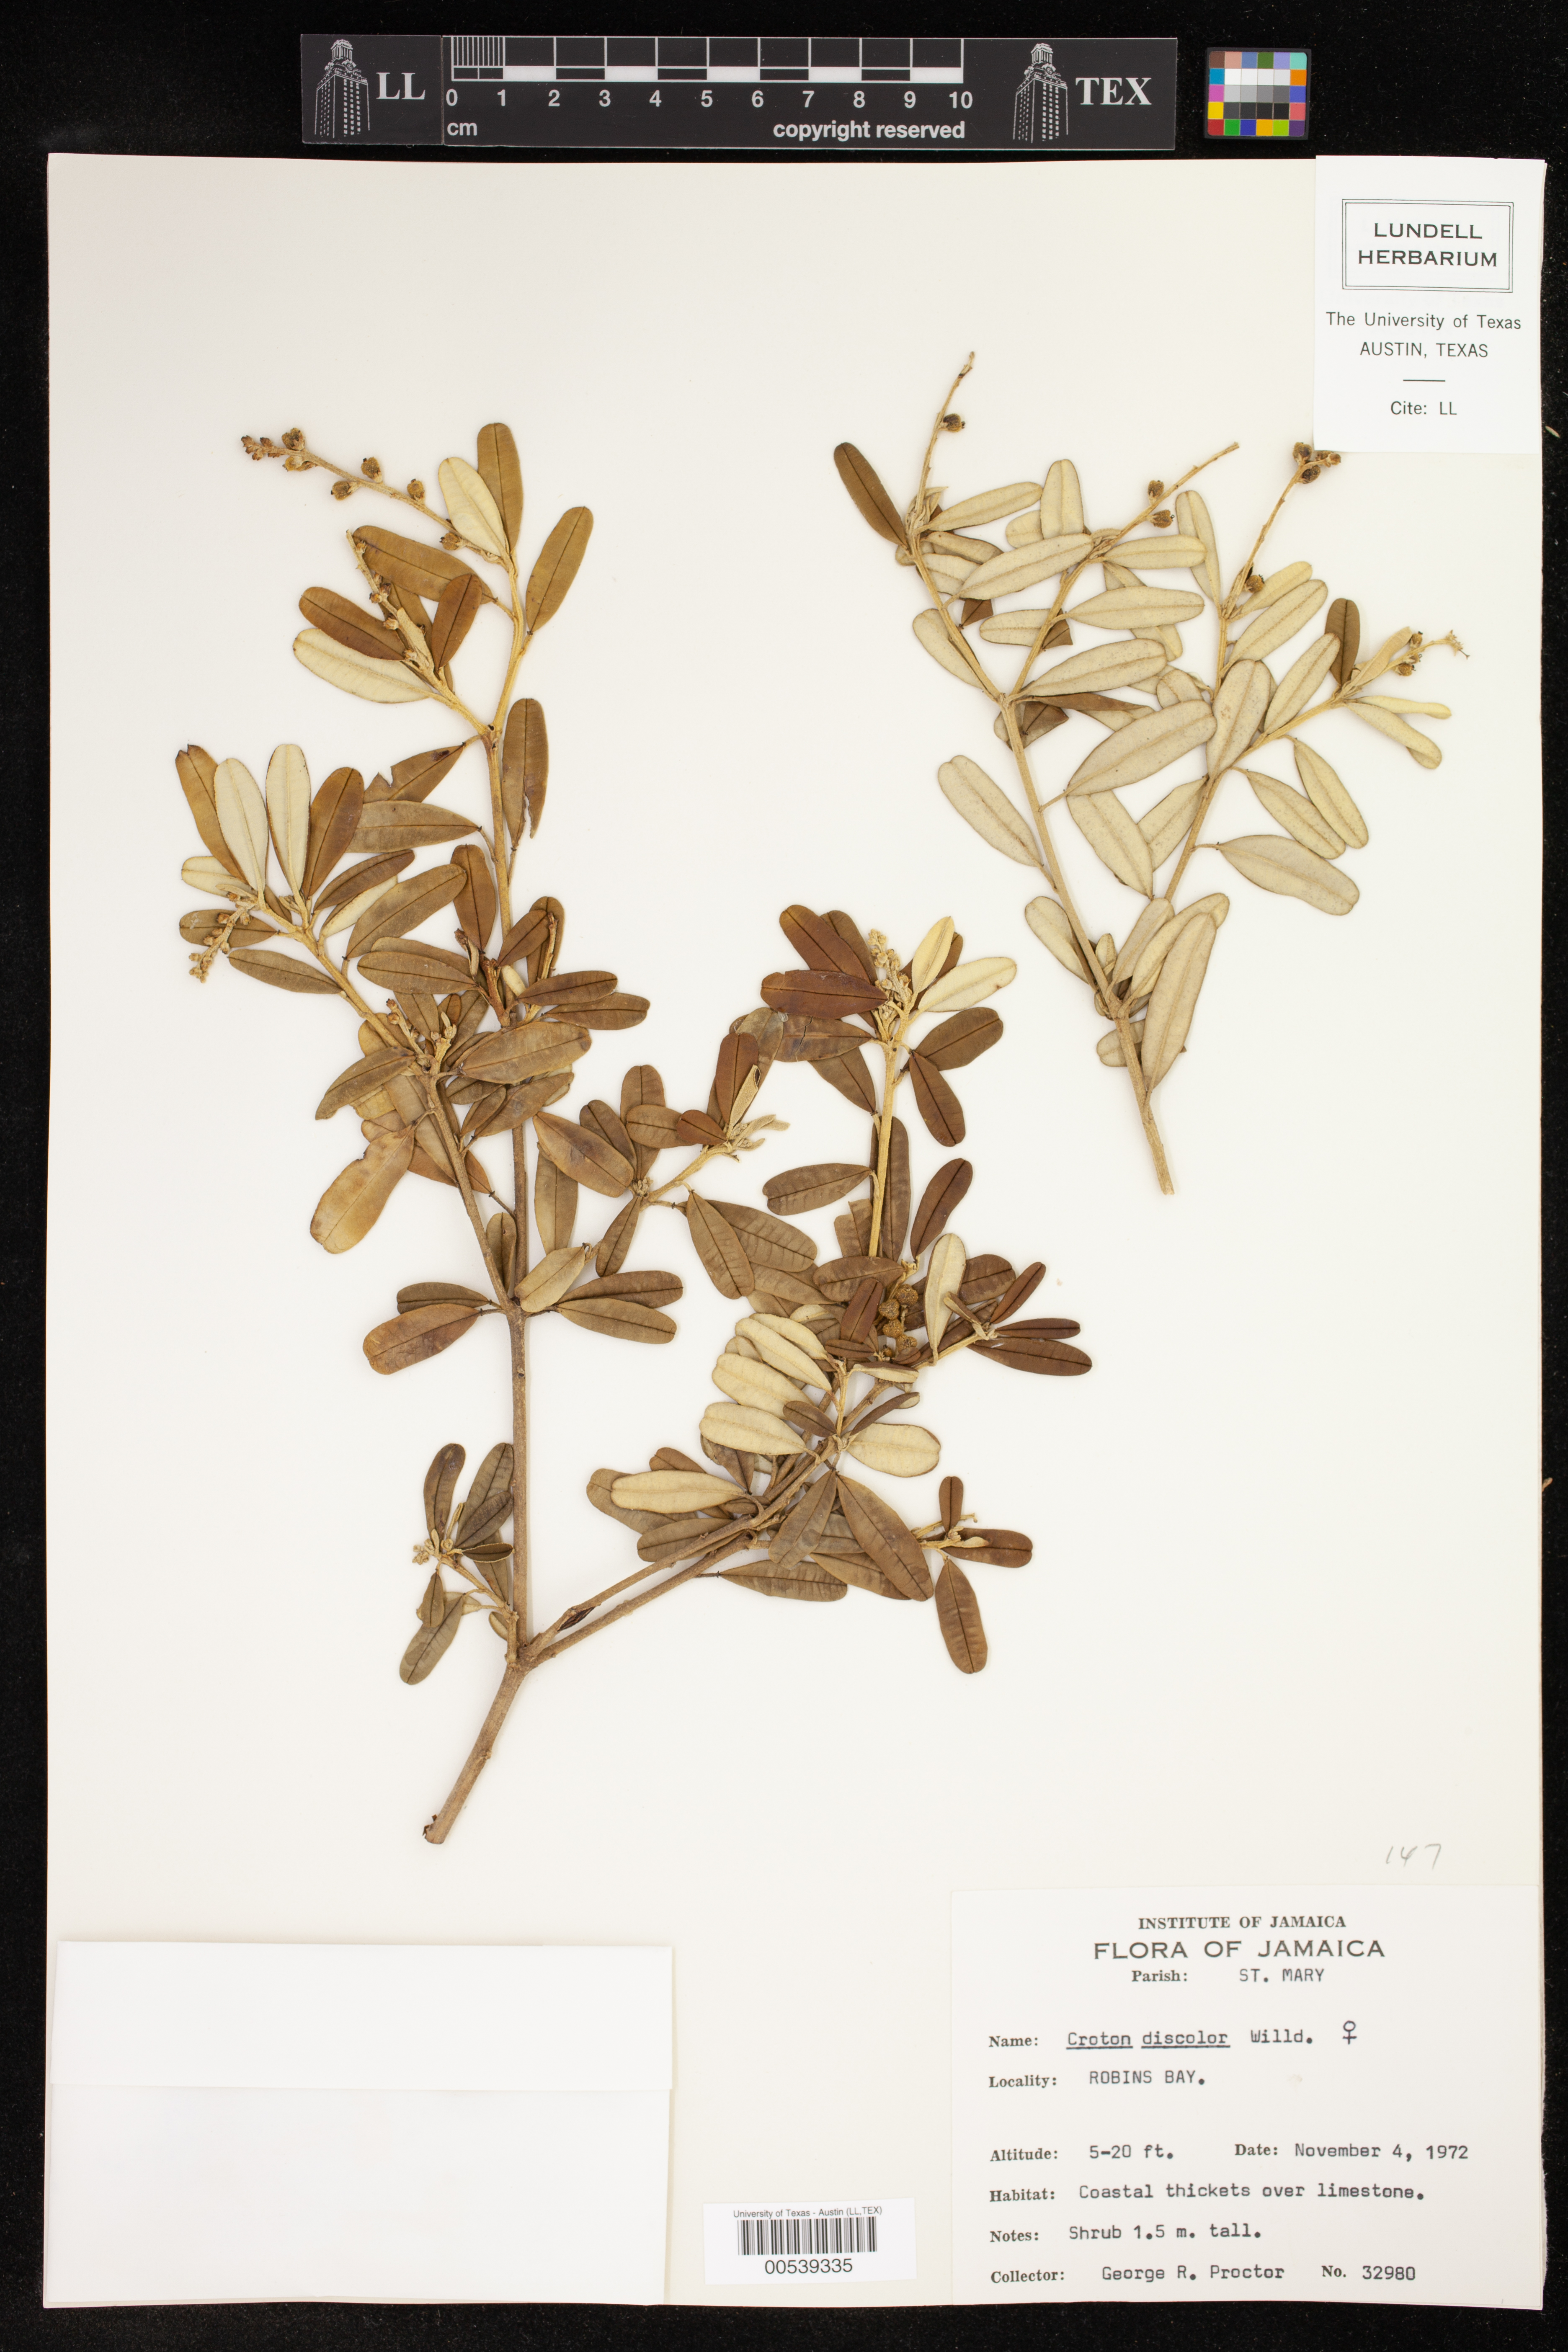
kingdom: Plantae
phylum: Tracheophyta
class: Magnoliopsida
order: Malpighiales
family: Euphorbiaceae
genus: Croton
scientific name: Croton discolor
